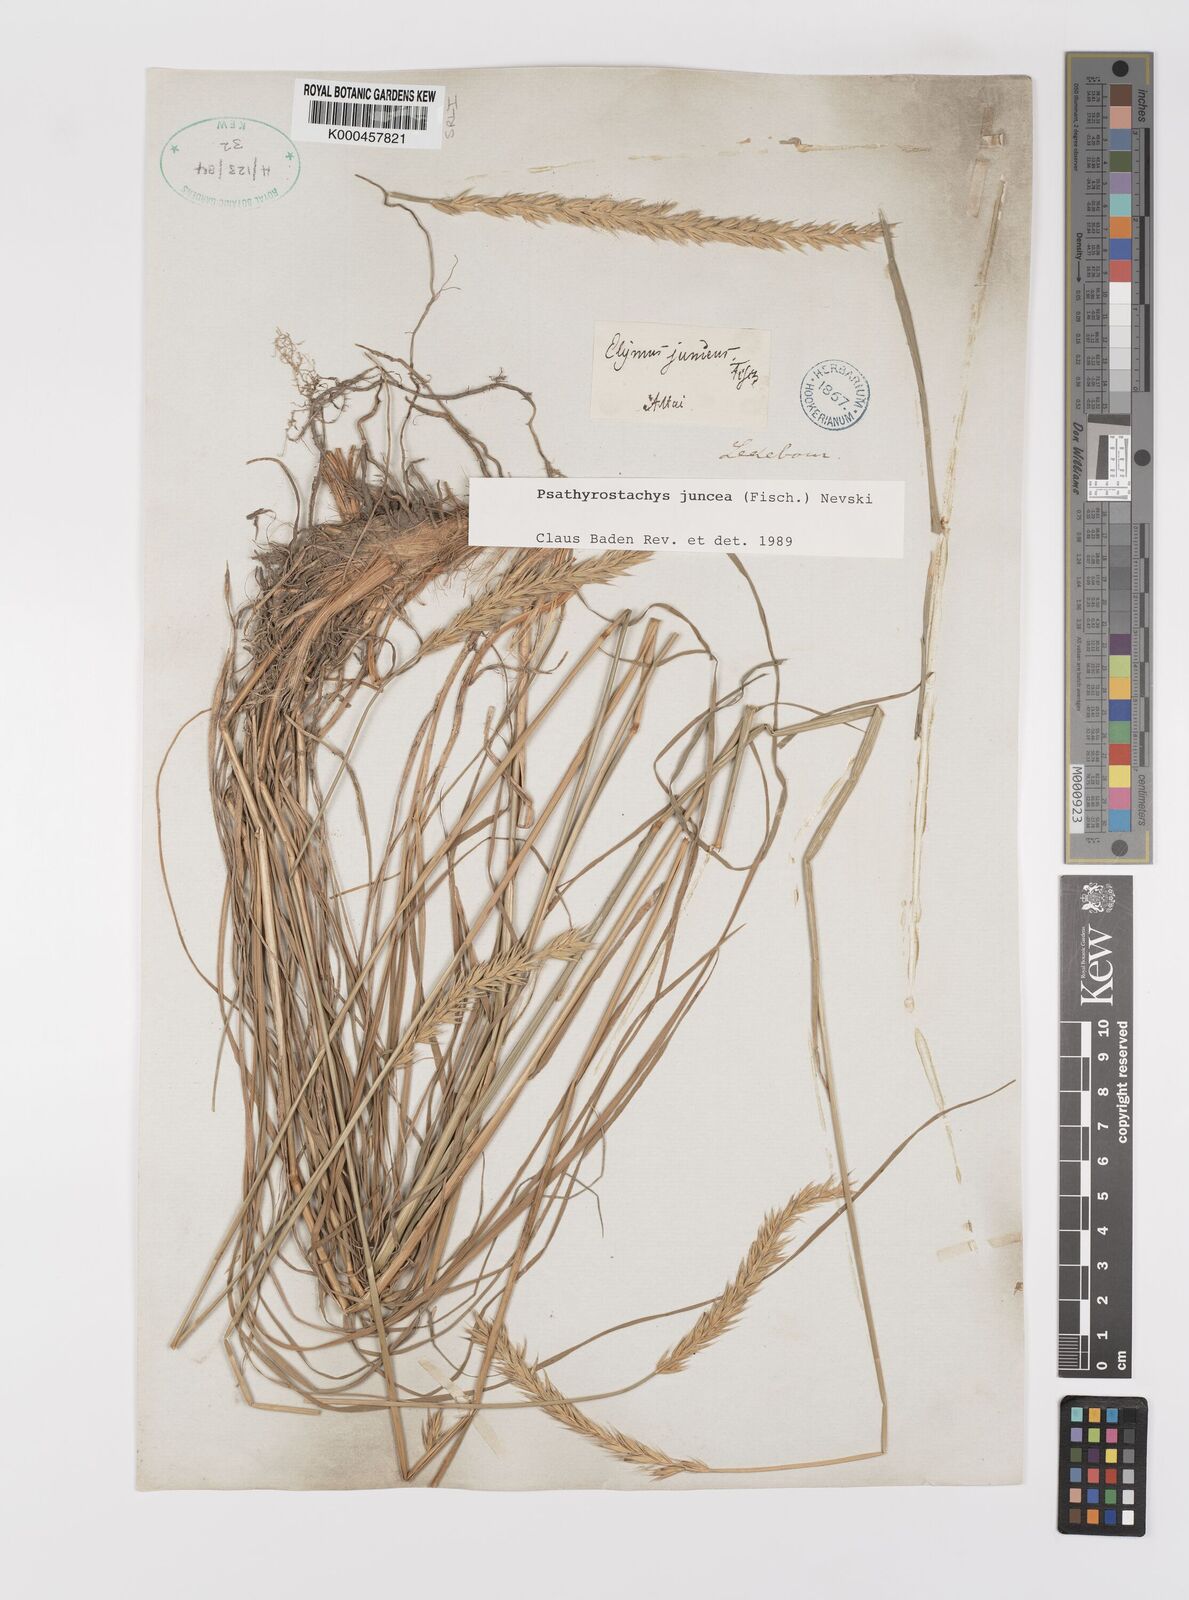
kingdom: Plantae
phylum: Tracheophyta
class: Liliopsida
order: Poales
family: Poaceae
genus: Psathyrostachys
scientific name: Psathyrostachys juncea
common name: Russian wildrye
